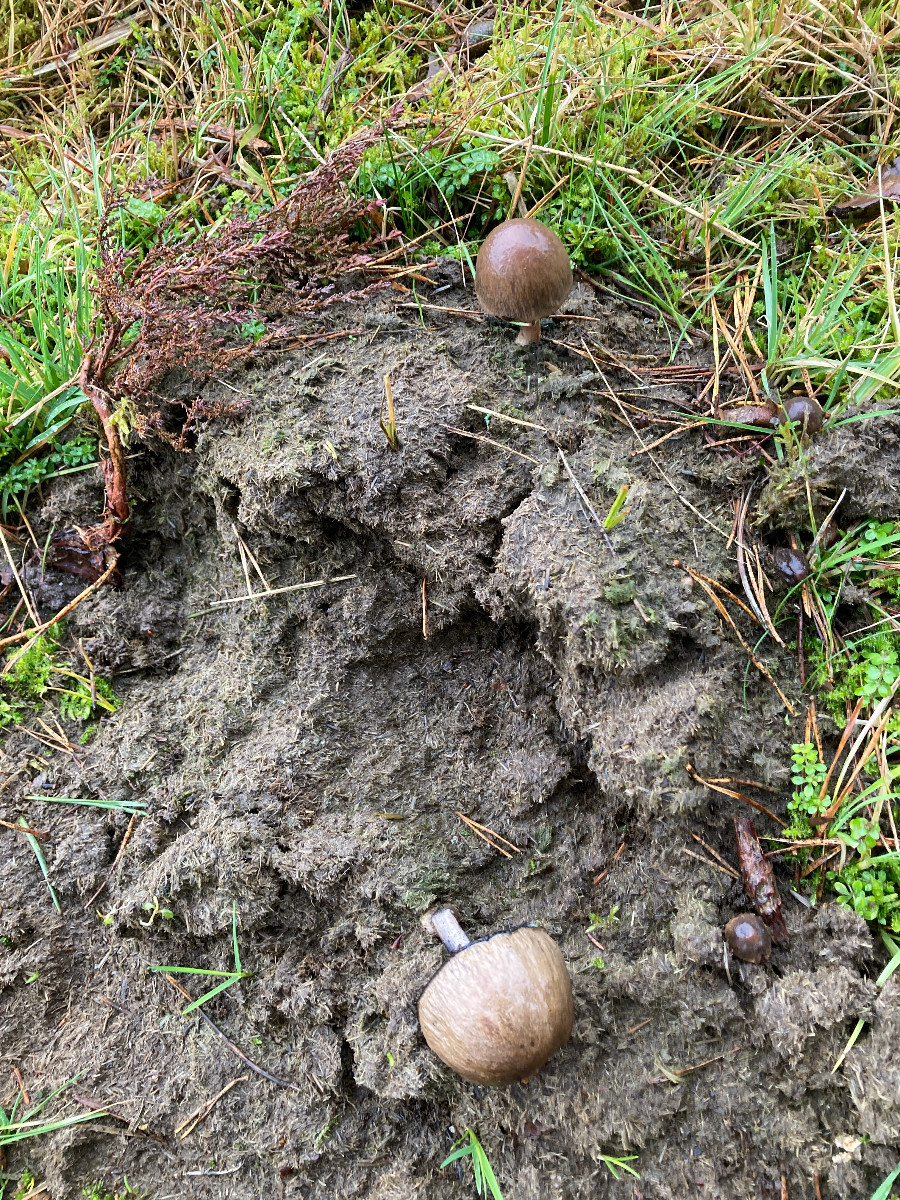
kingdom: Fungi
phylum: Basidiomycota
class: Agaricomycetes
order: Agaricales
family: Bolbitiaceae
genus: Panaeolus
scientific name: Panaeolus semiovatus
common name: ring-glanshat
